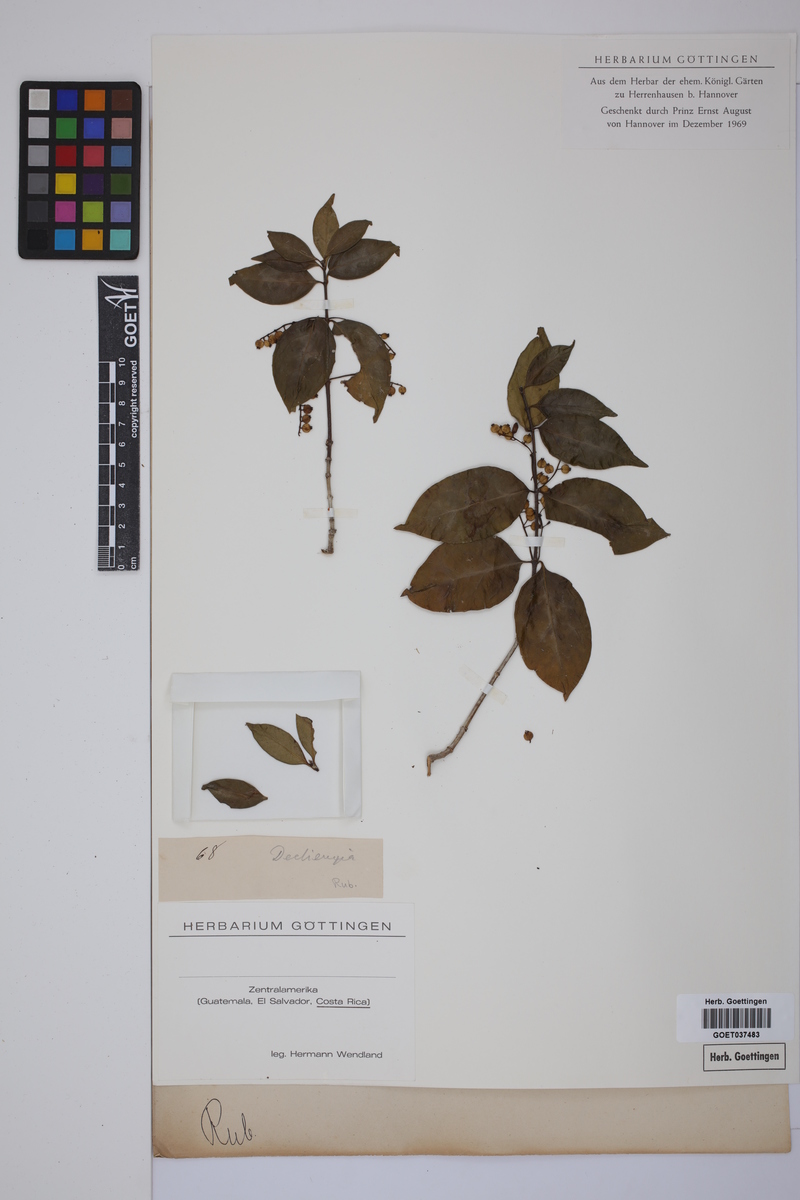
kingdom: Plantae
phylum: Tracheophyta
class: Magnoliopsida
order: Gentianales
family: Rubiaceae
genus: Declieuxia
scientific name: Declieuxia
